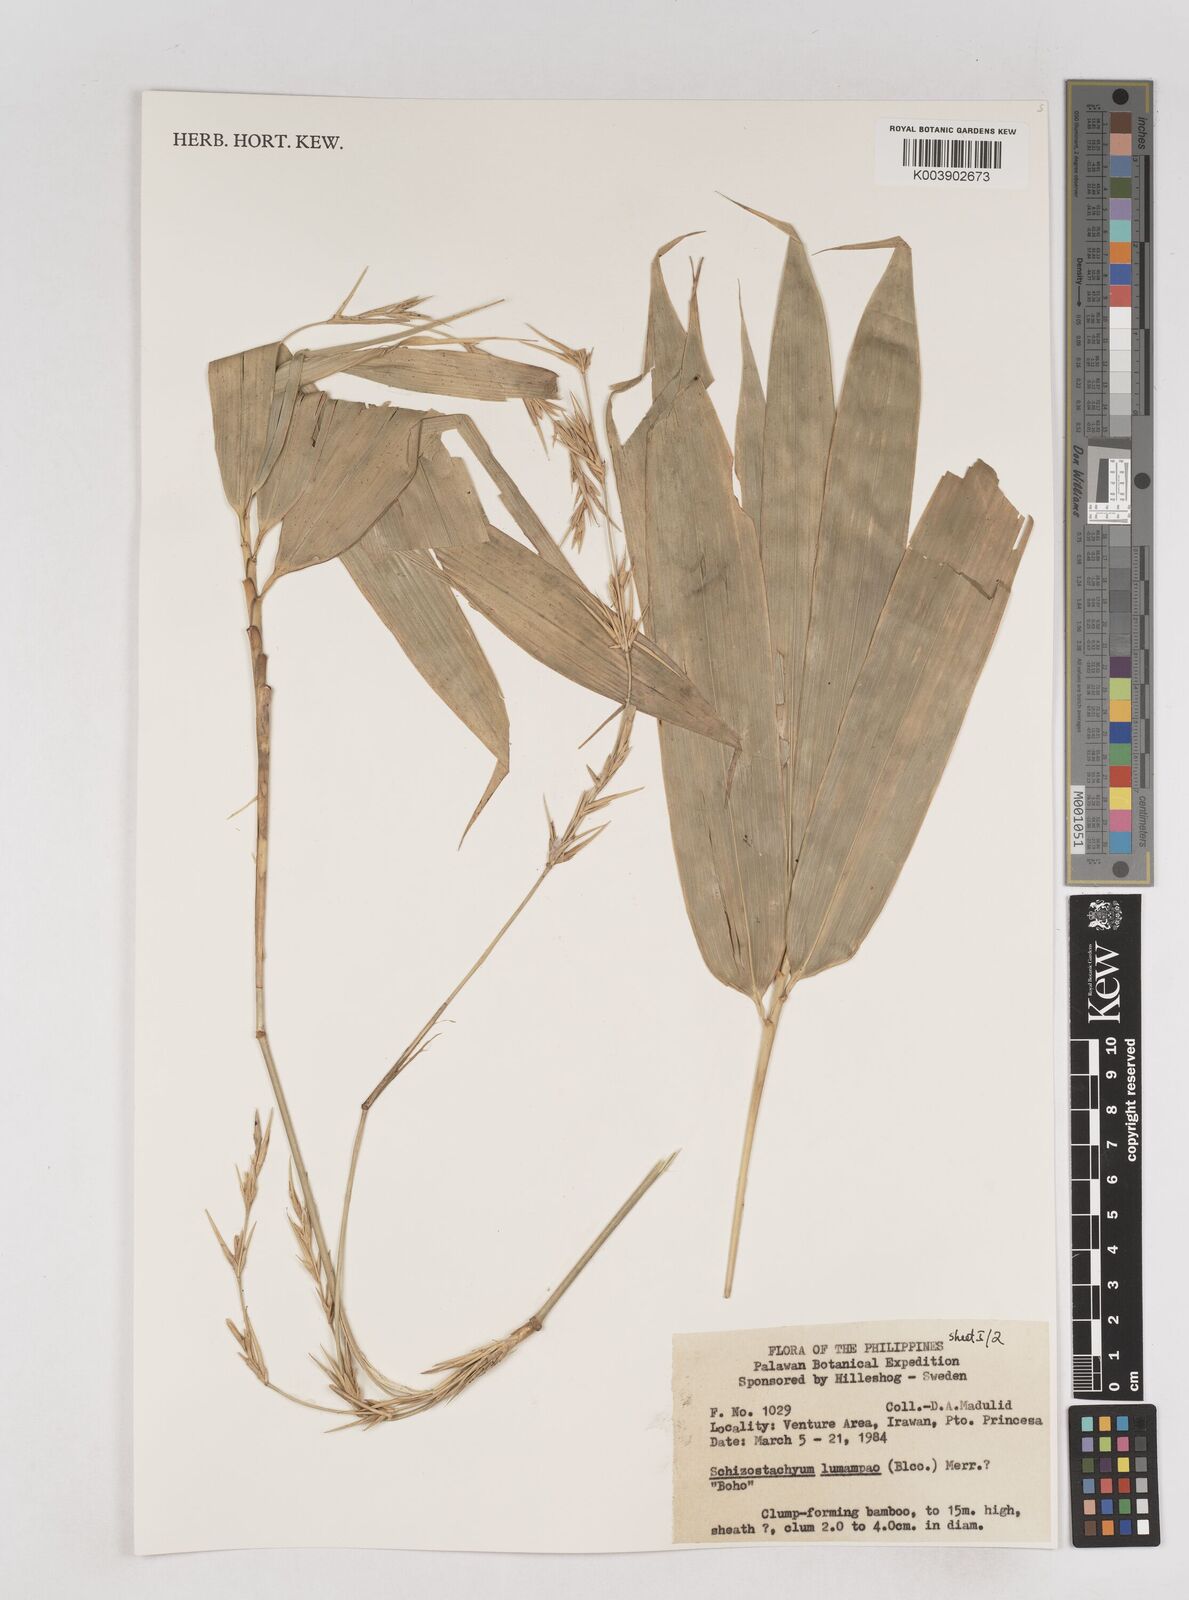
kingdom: Plantae
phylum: Tracheophyta
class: Liliopsida
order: Poales
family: Poaceae
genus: Schizostachyum
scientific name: Schizostachyum lumampao
